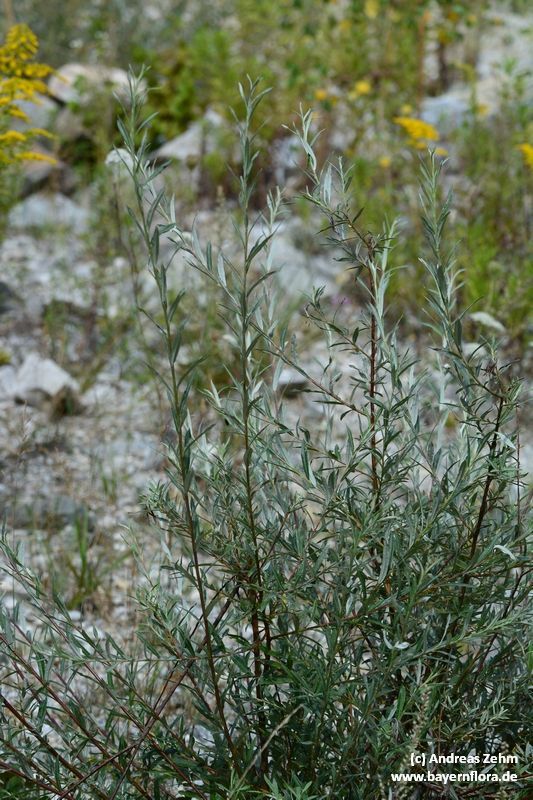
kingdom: Plantae
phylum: Tracheophyta
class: Magnoliopsida
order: Malpighiales
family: Salicaceae
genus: Salix
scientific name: Salix eleagnos
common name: Elaeagnus willow
